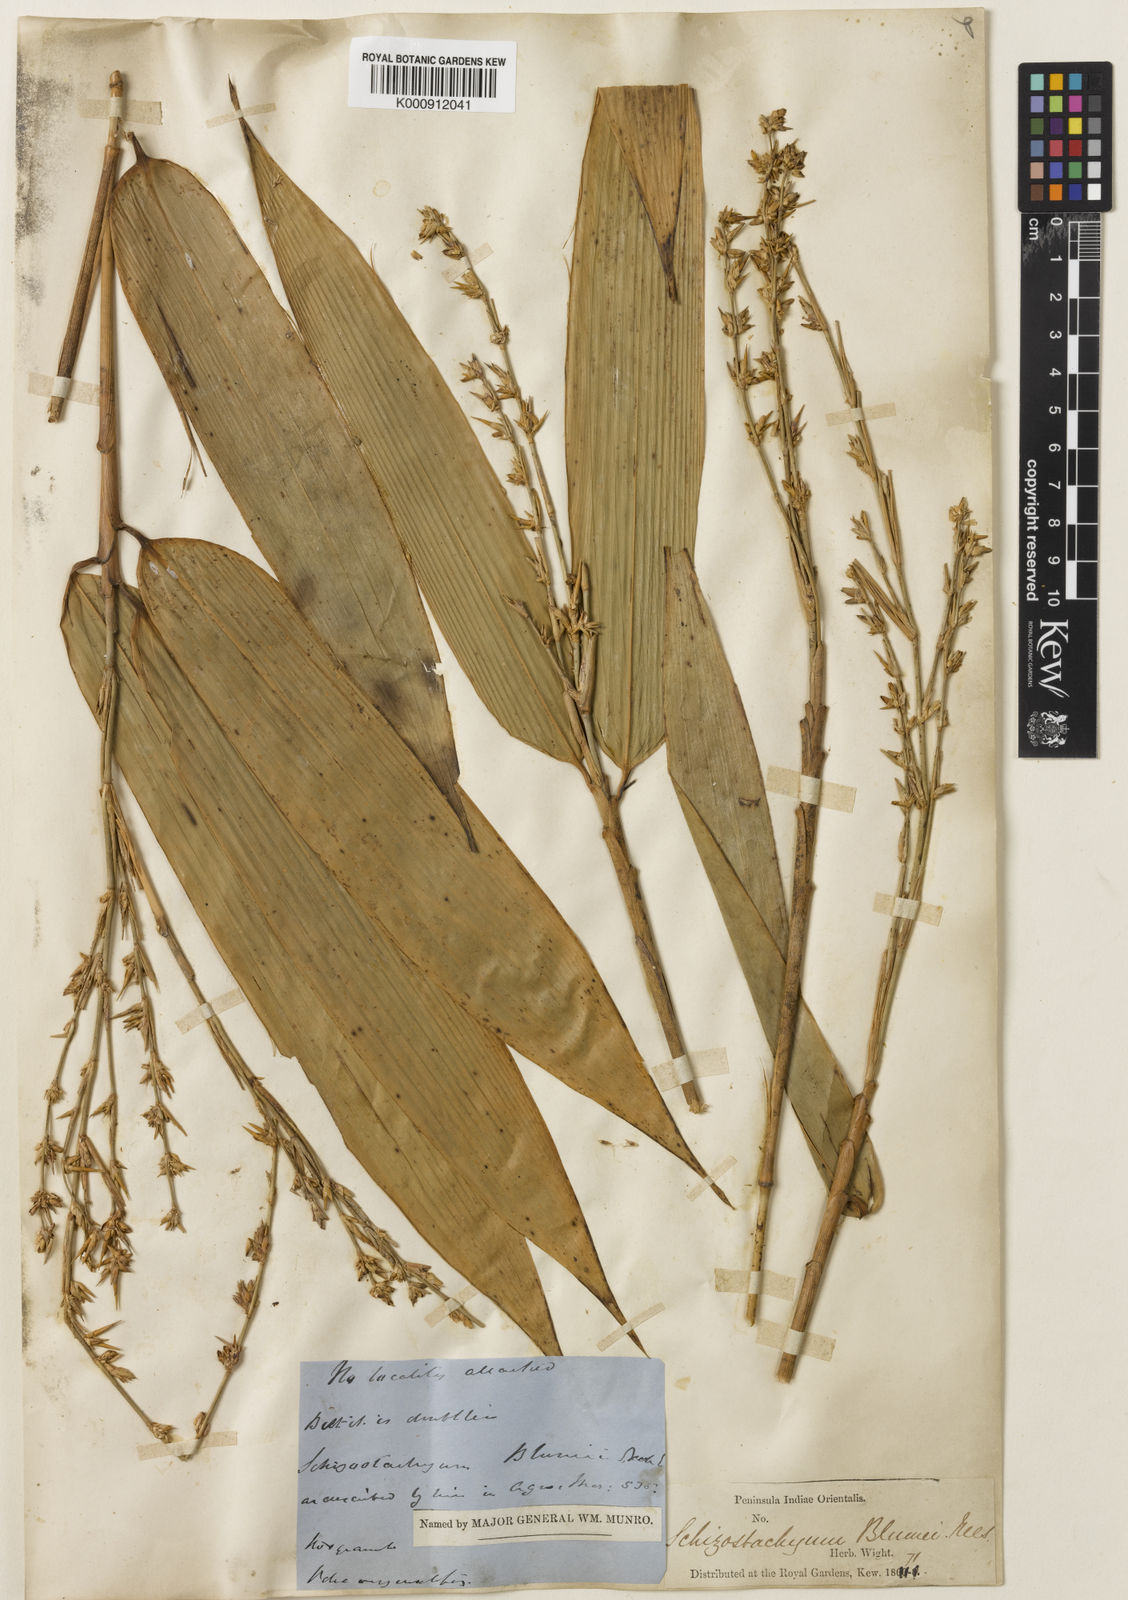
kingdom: Plantae
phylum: Tracheophyta
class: Liliopsida
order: Poales
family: Poaceae
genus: Pseudoxytenanthera
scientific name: Pseudoxytenanthera ritchiei
